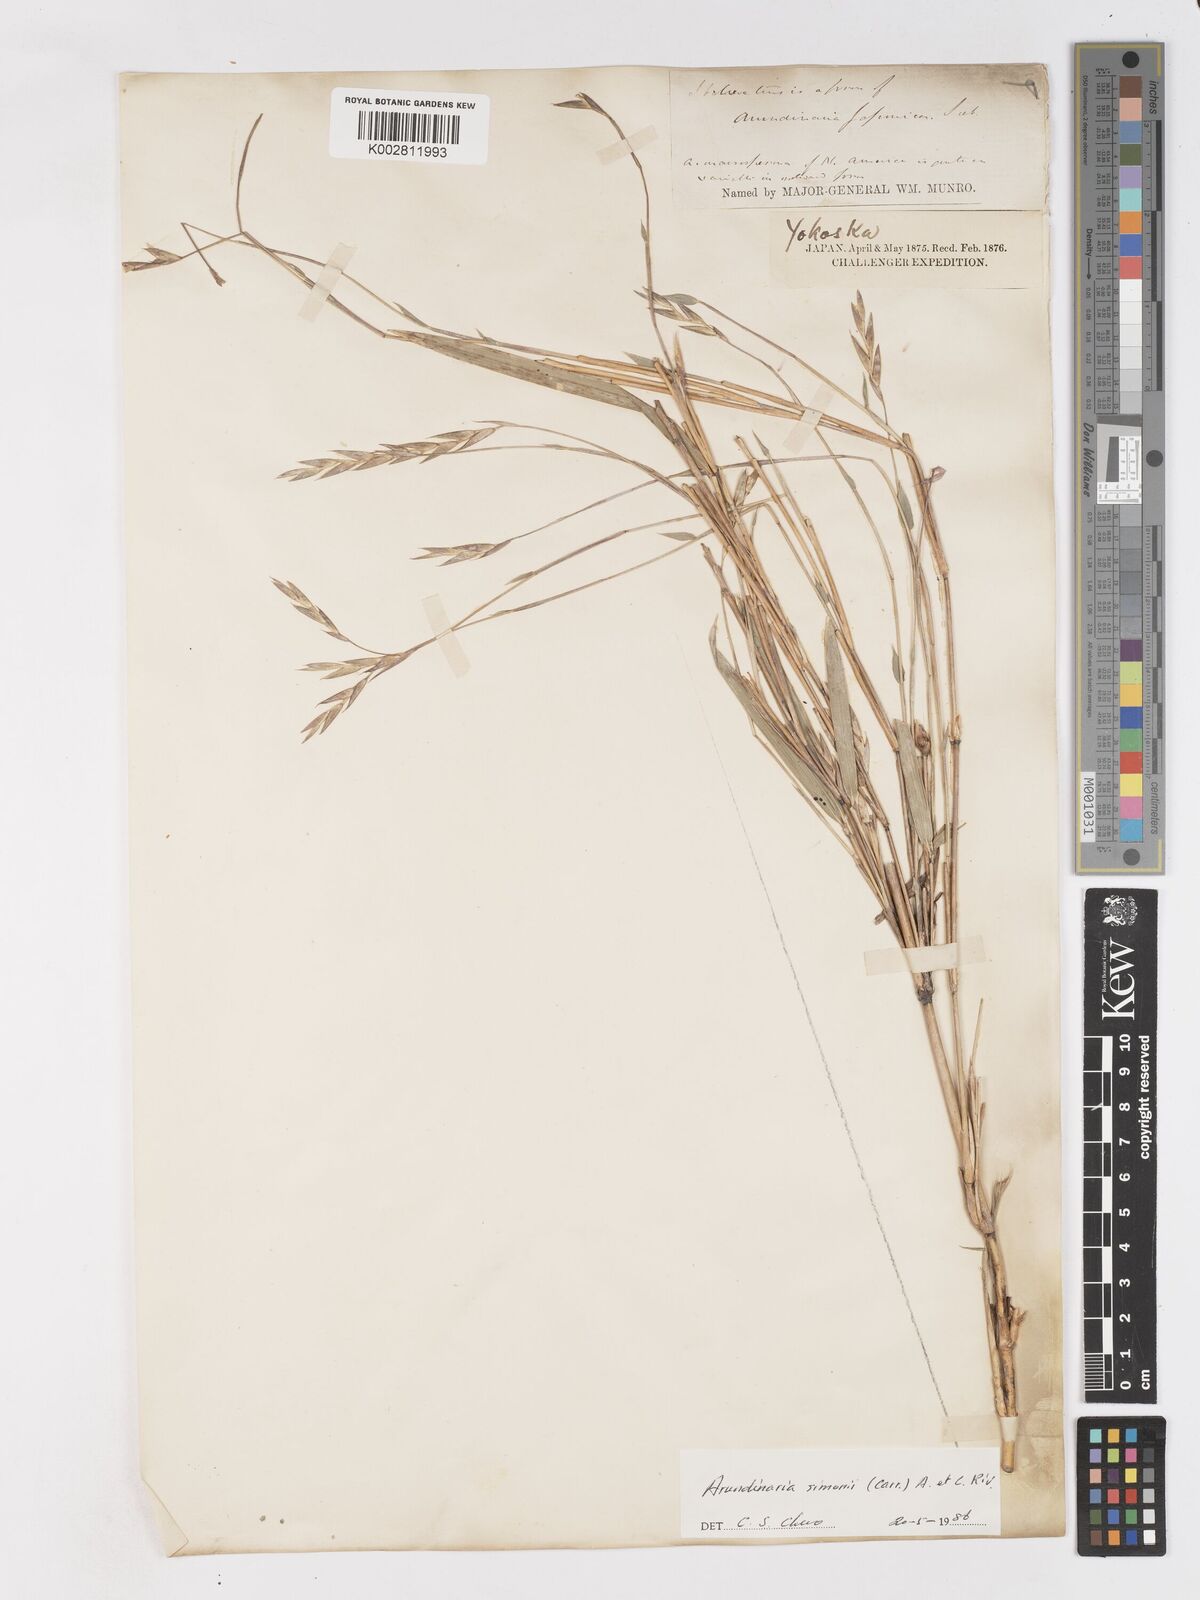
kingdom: Plantae
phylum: Tracheophyta
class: Liliopsida
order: Poales
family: Poaceae
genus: Pleioblastus
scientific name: Pleioblastus simonii
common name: Simon bamboo
